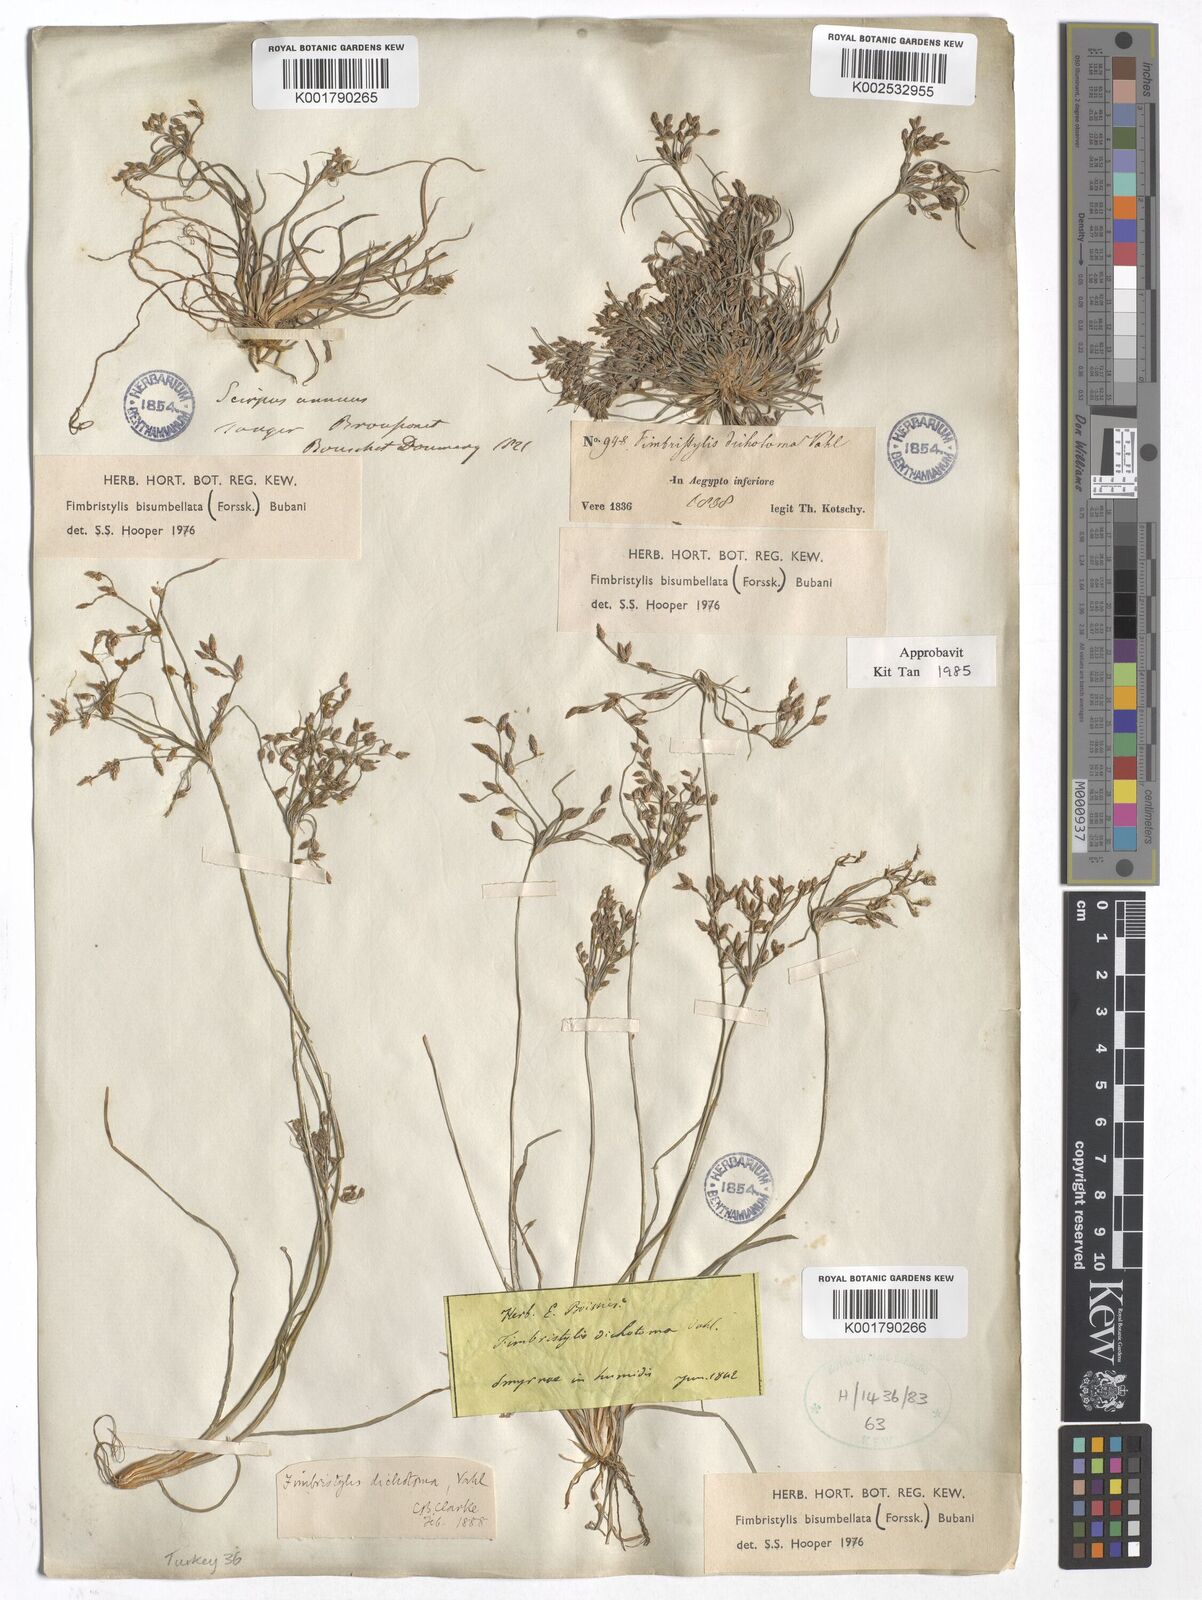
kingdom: Plantae
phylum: Tracheophyta
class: Liliopsida
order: Poales
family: Cyperaceae
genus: Fimbristylis
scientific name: Fimbristylis bisumbellata
